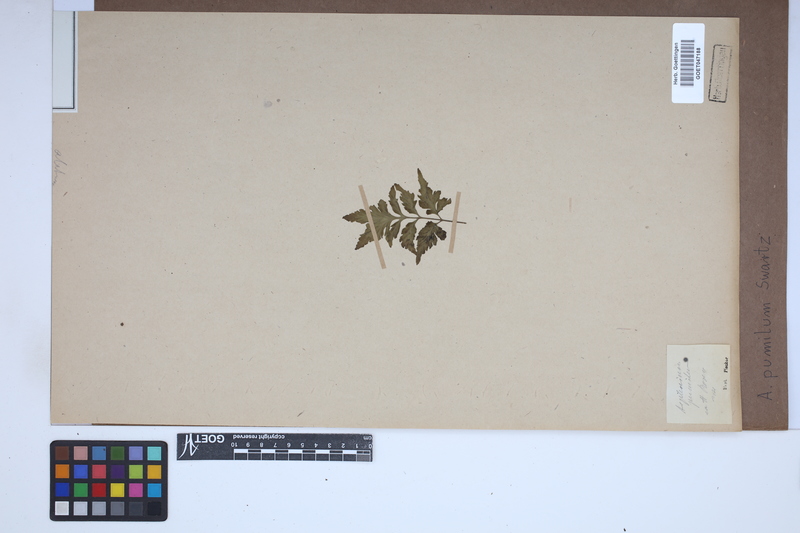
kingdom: Plantae
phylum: Tracheophyta
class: Polypodiopsida
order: Polypodiales
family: Aspleniaceae
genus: Asplenium
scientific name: Asplenium pumilum
